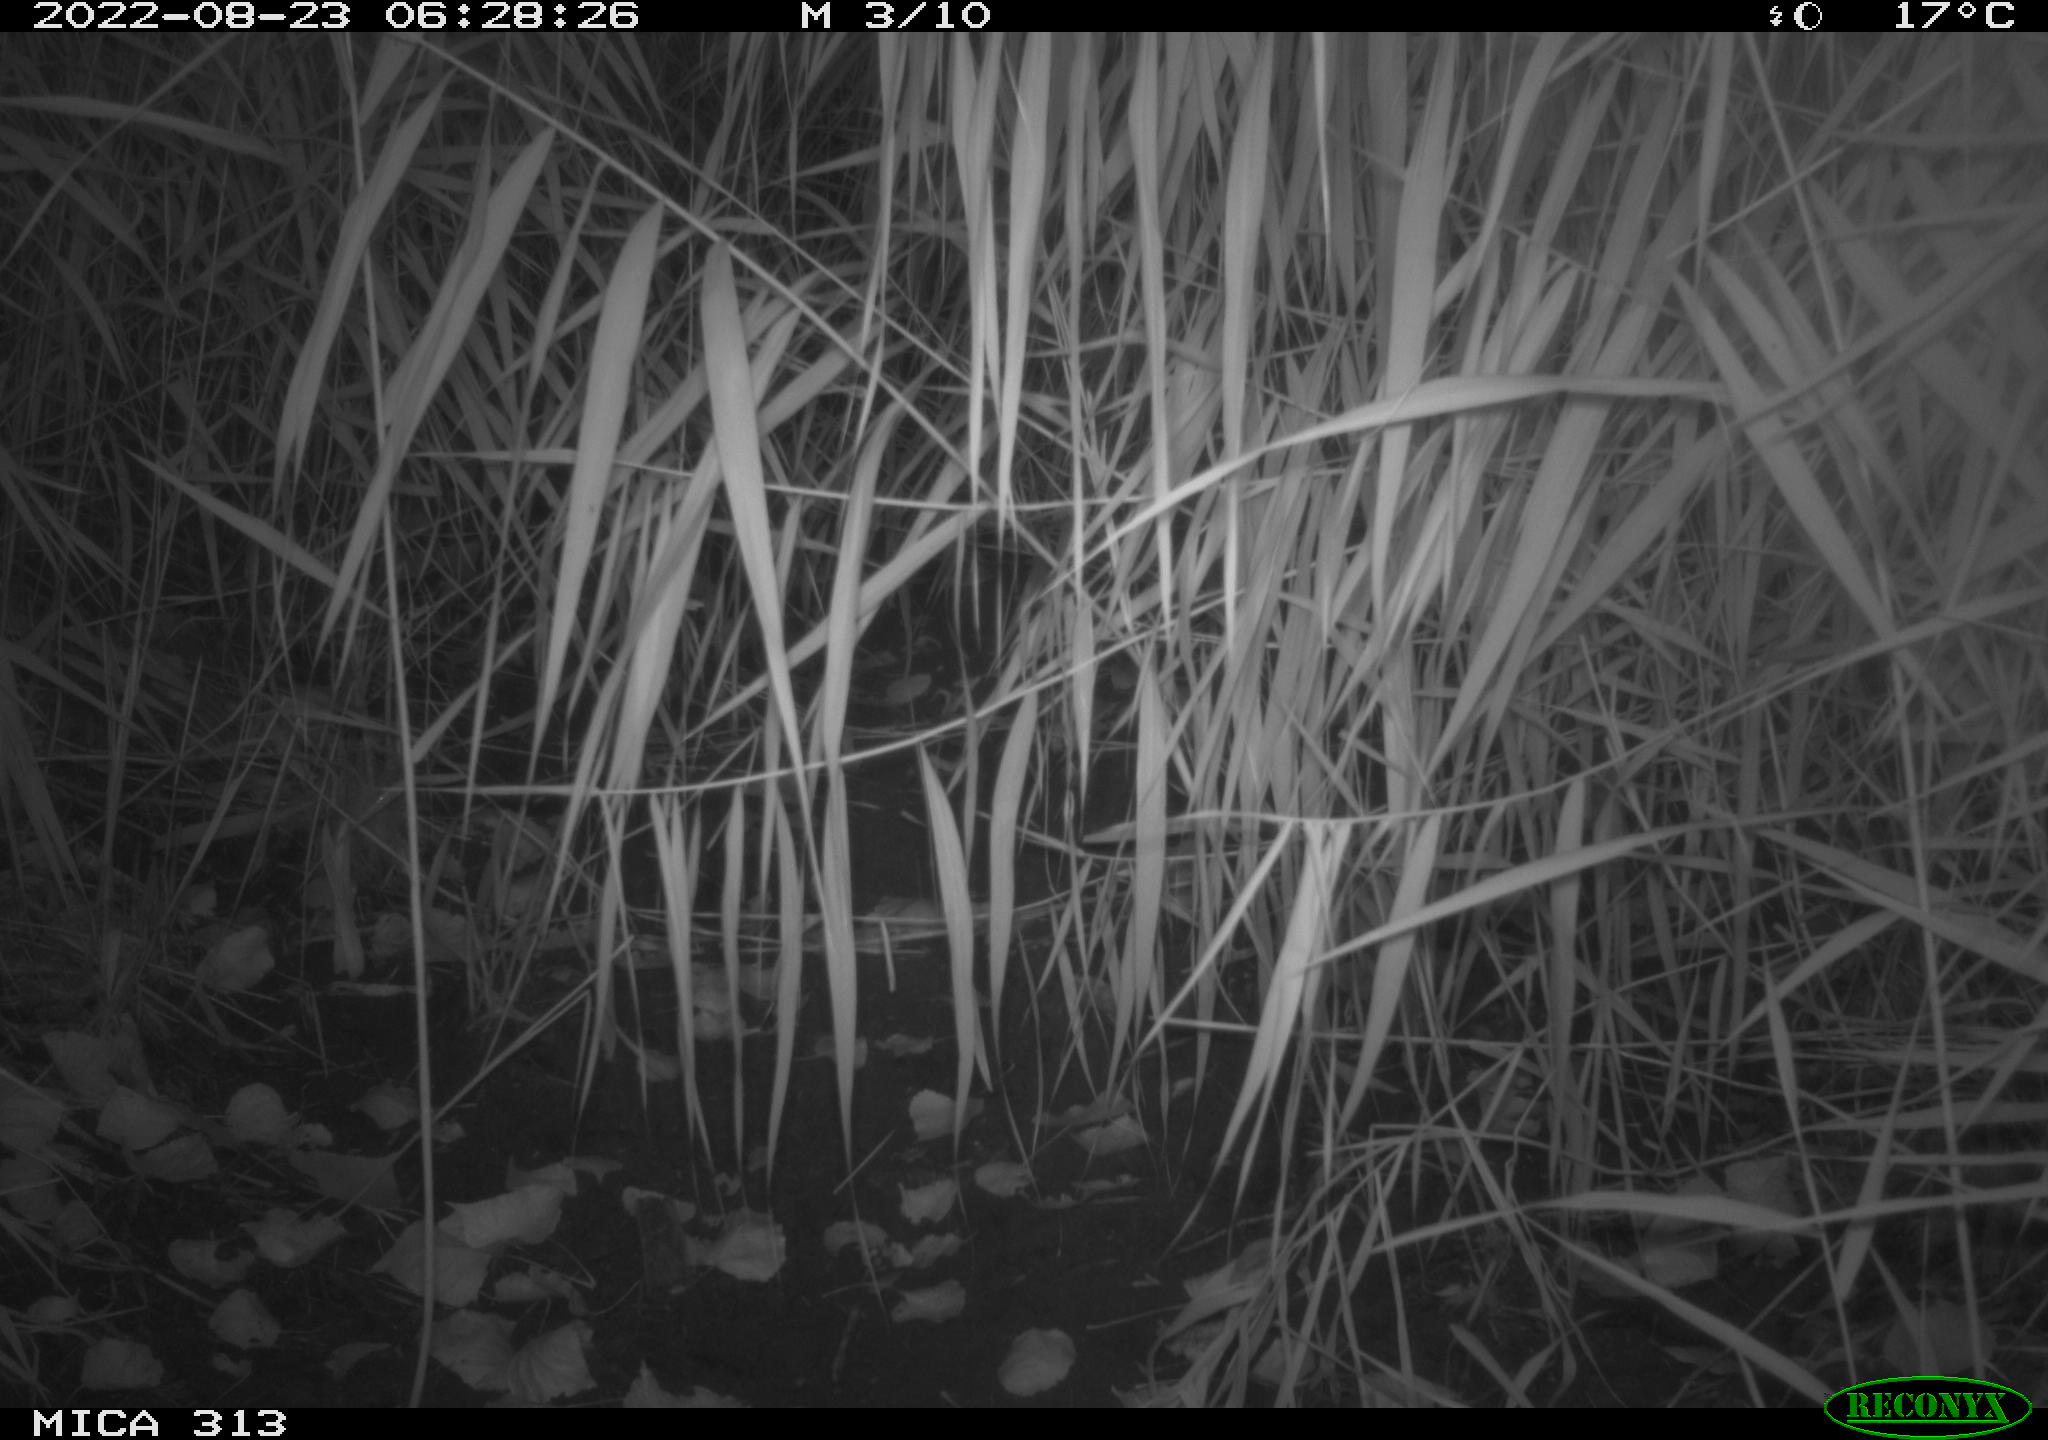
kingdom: Animalia
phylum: Chordata
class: Mammalia
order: Rodentia
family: Muridae
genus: Rattus
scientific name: Rattus norvegicus
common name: Brown rat
